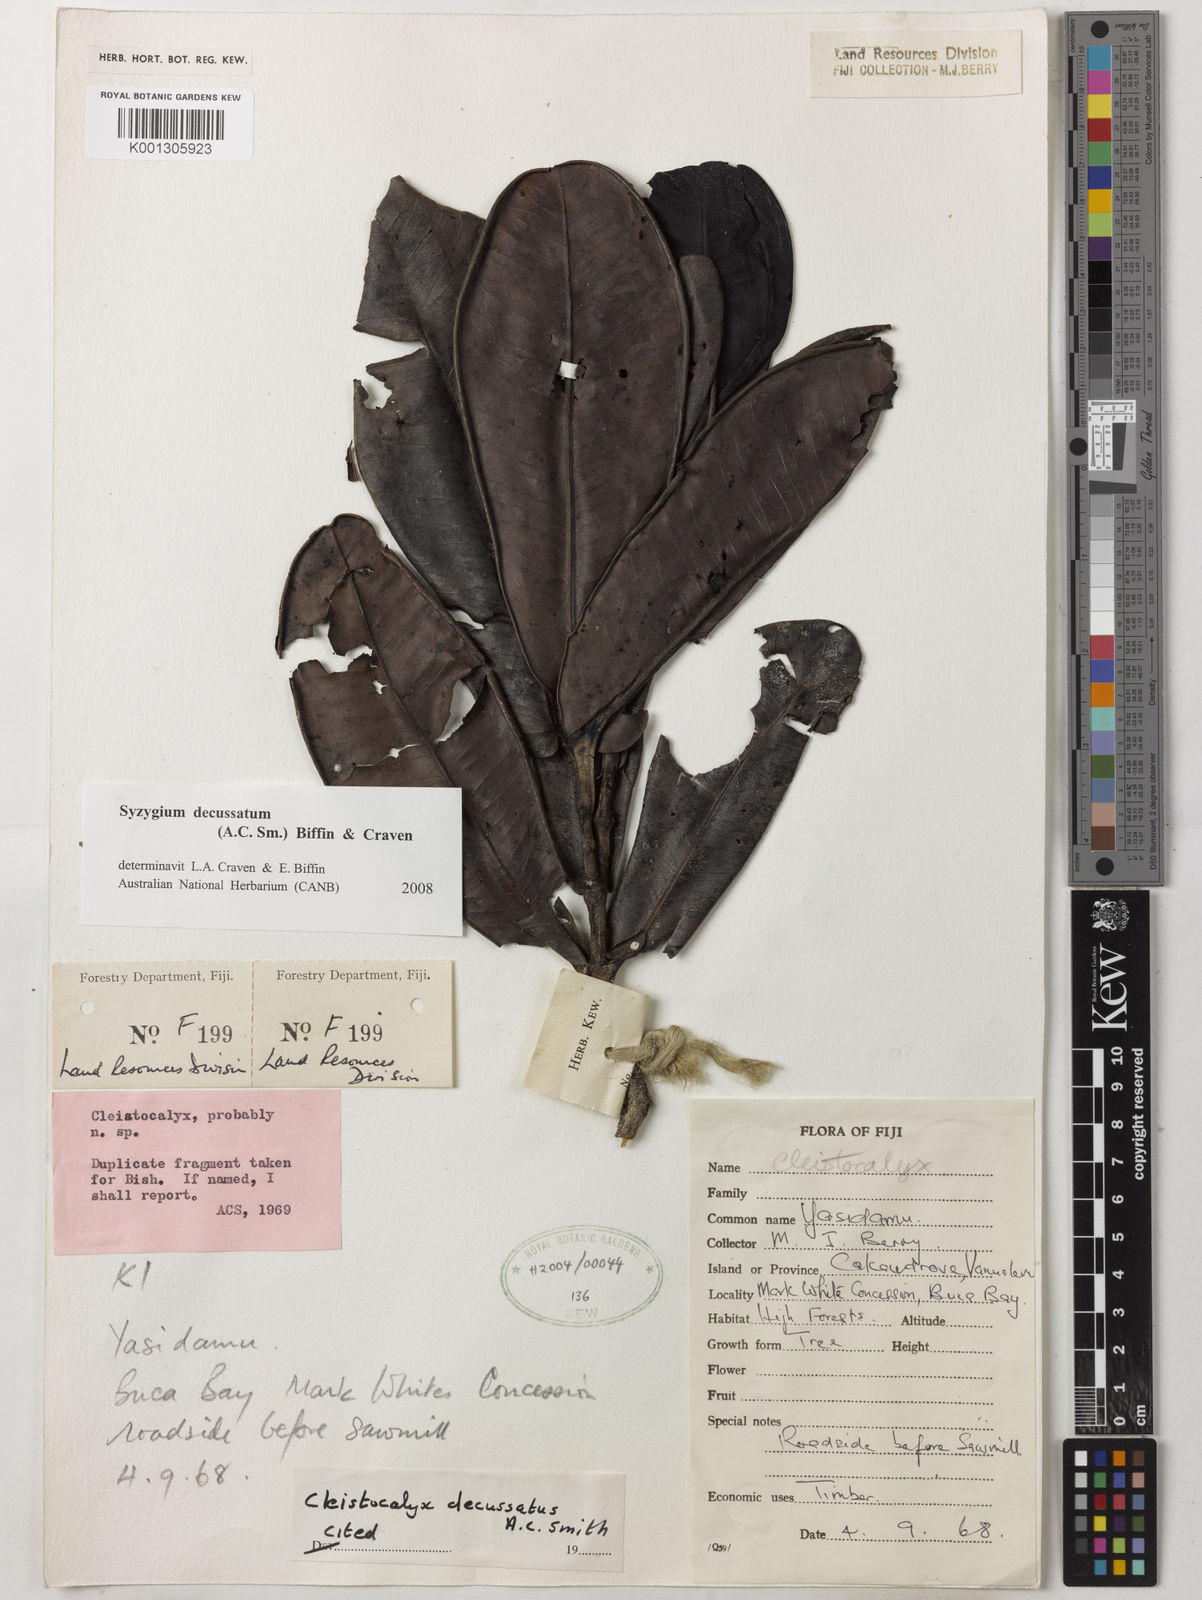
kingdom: Plantae
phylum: Tracheophyta
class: Magnoliopsida
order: Myrtales
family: Myrtaceae
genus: Syzygium
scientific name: Syzygium
